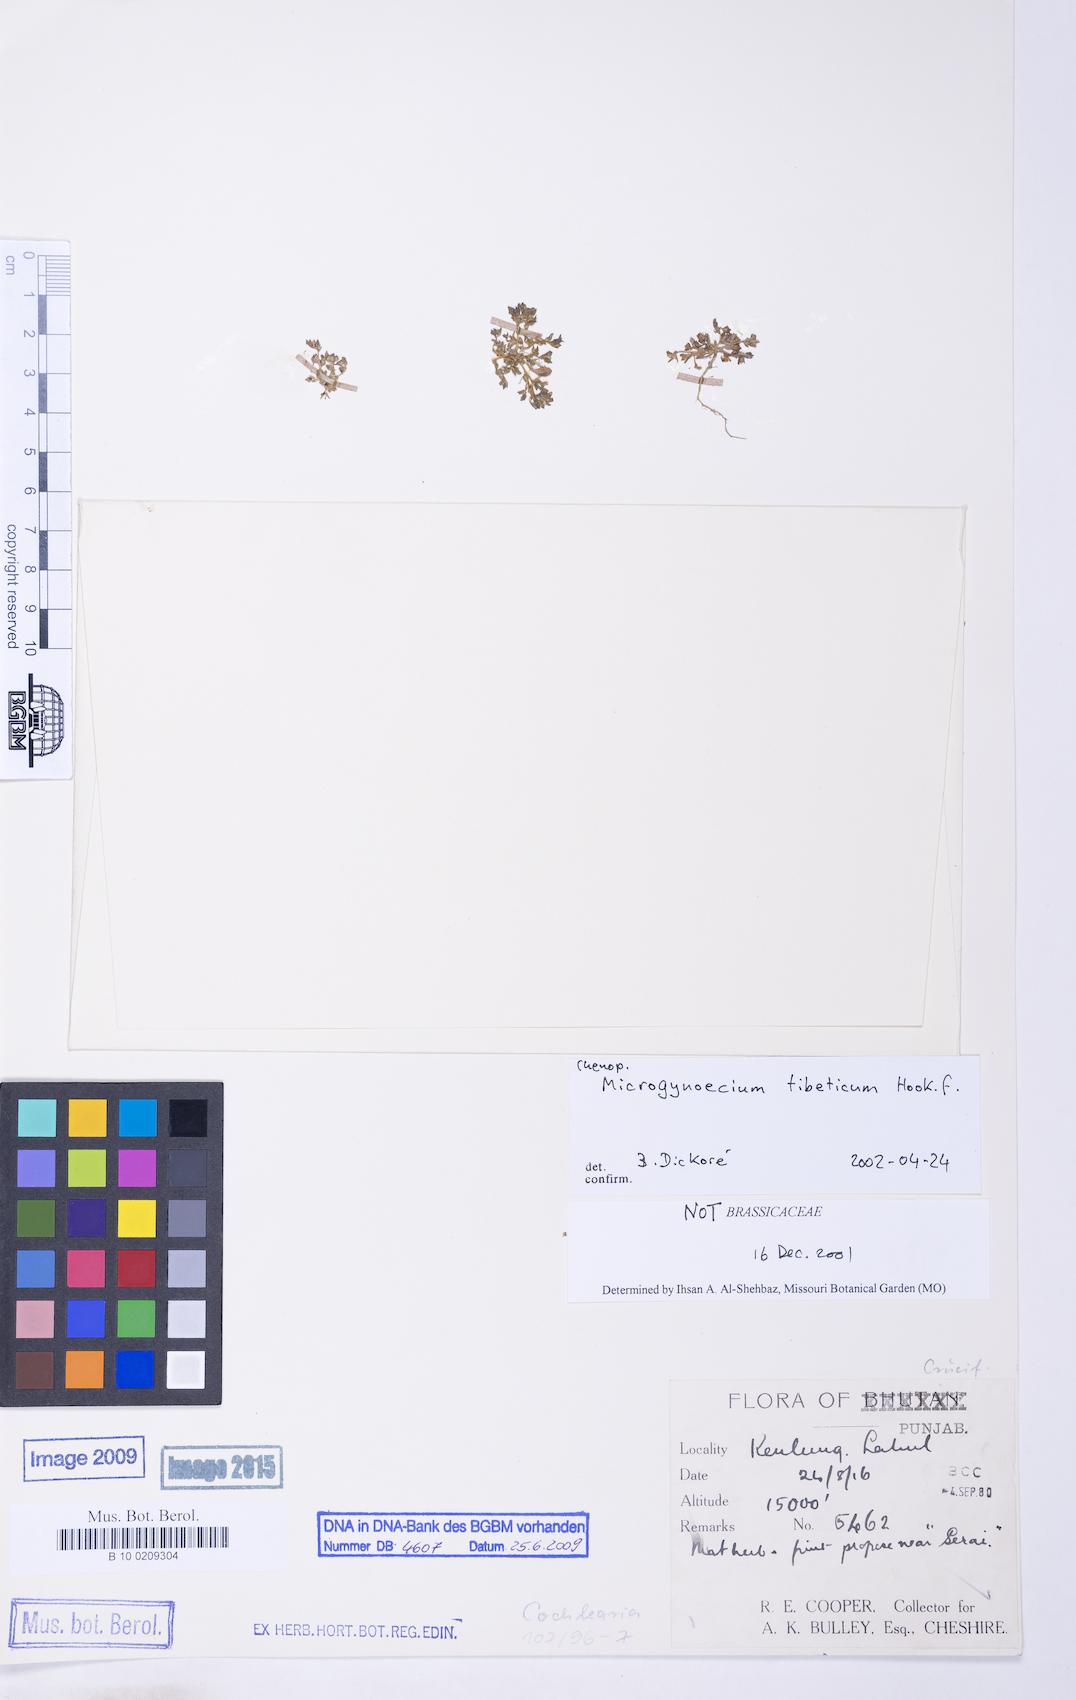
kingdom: Plantae
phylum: Tracheophyta
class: Magnoliopsida
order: Caryophyllales
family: Amaranthaceae
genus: Microgynoecium
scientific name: Microgynoecium tibeticum
